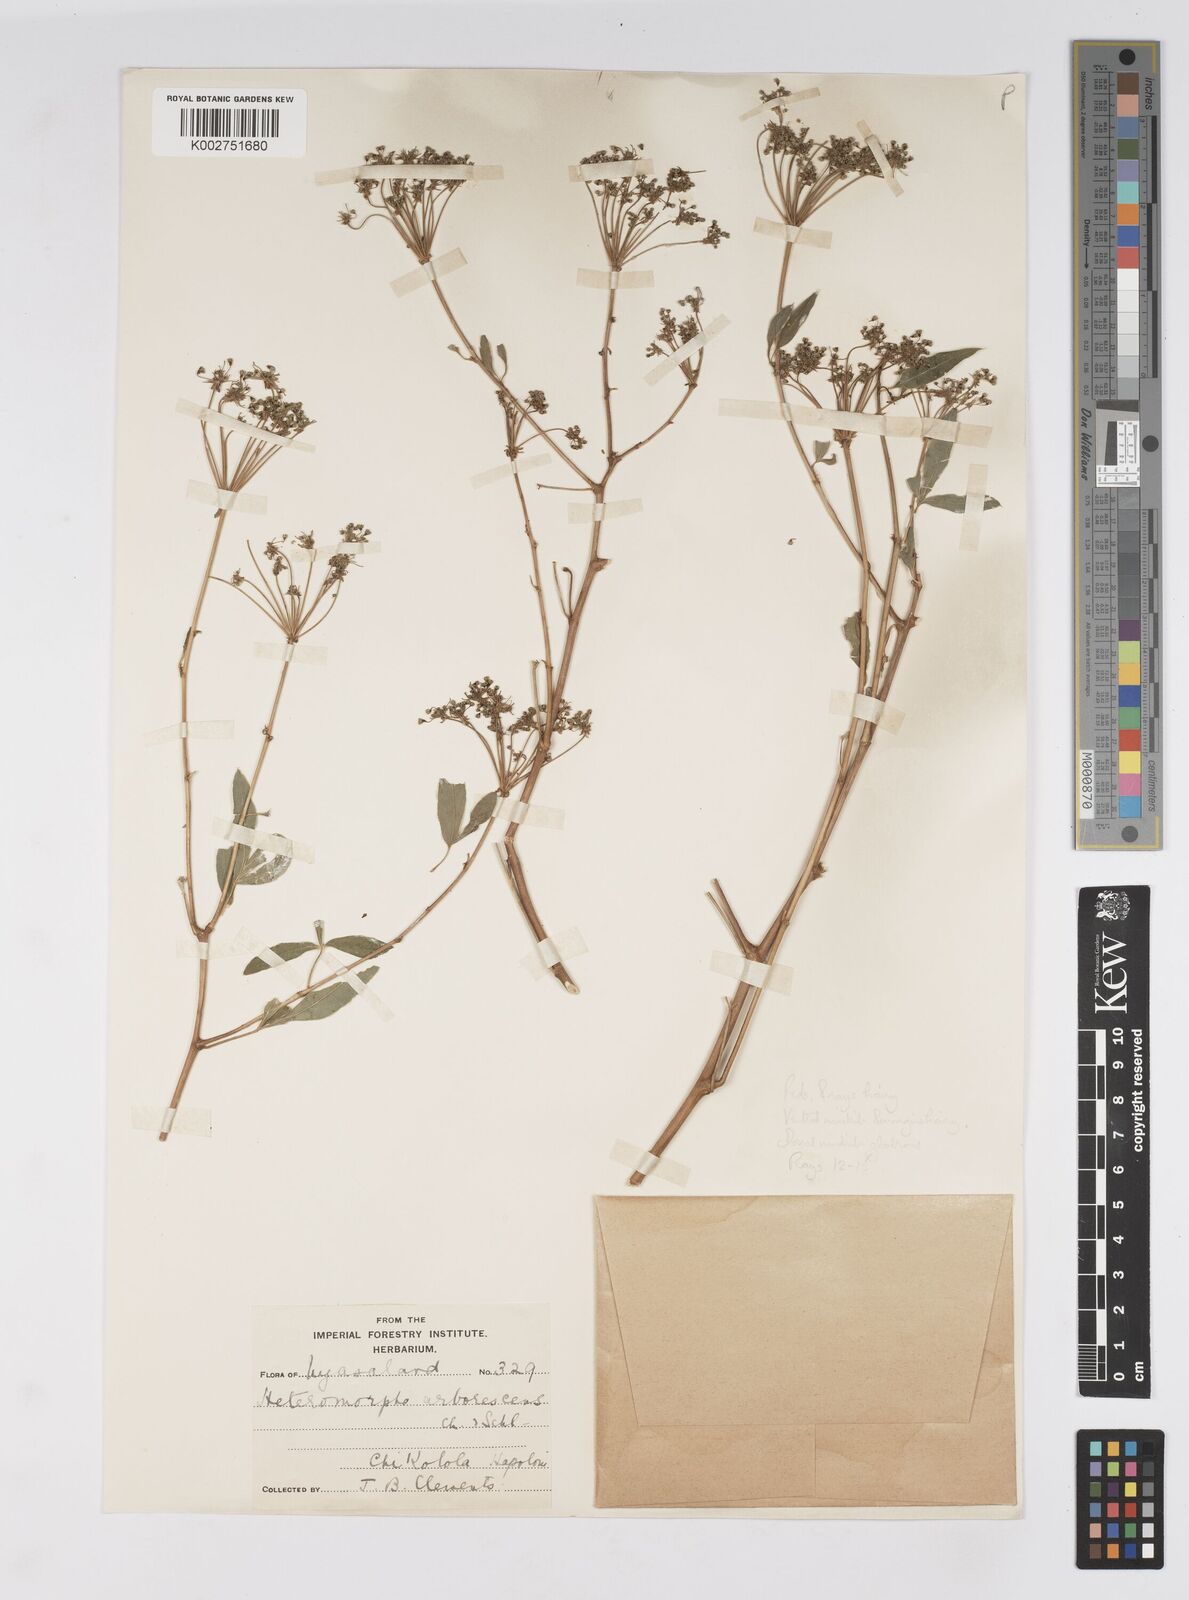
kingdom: Plantae
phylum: Tracheophyta
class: Magnoliopsida
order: Apiales
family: Apiaceae
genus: Heteromorpha
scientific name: Heteromorpha stenophylla
